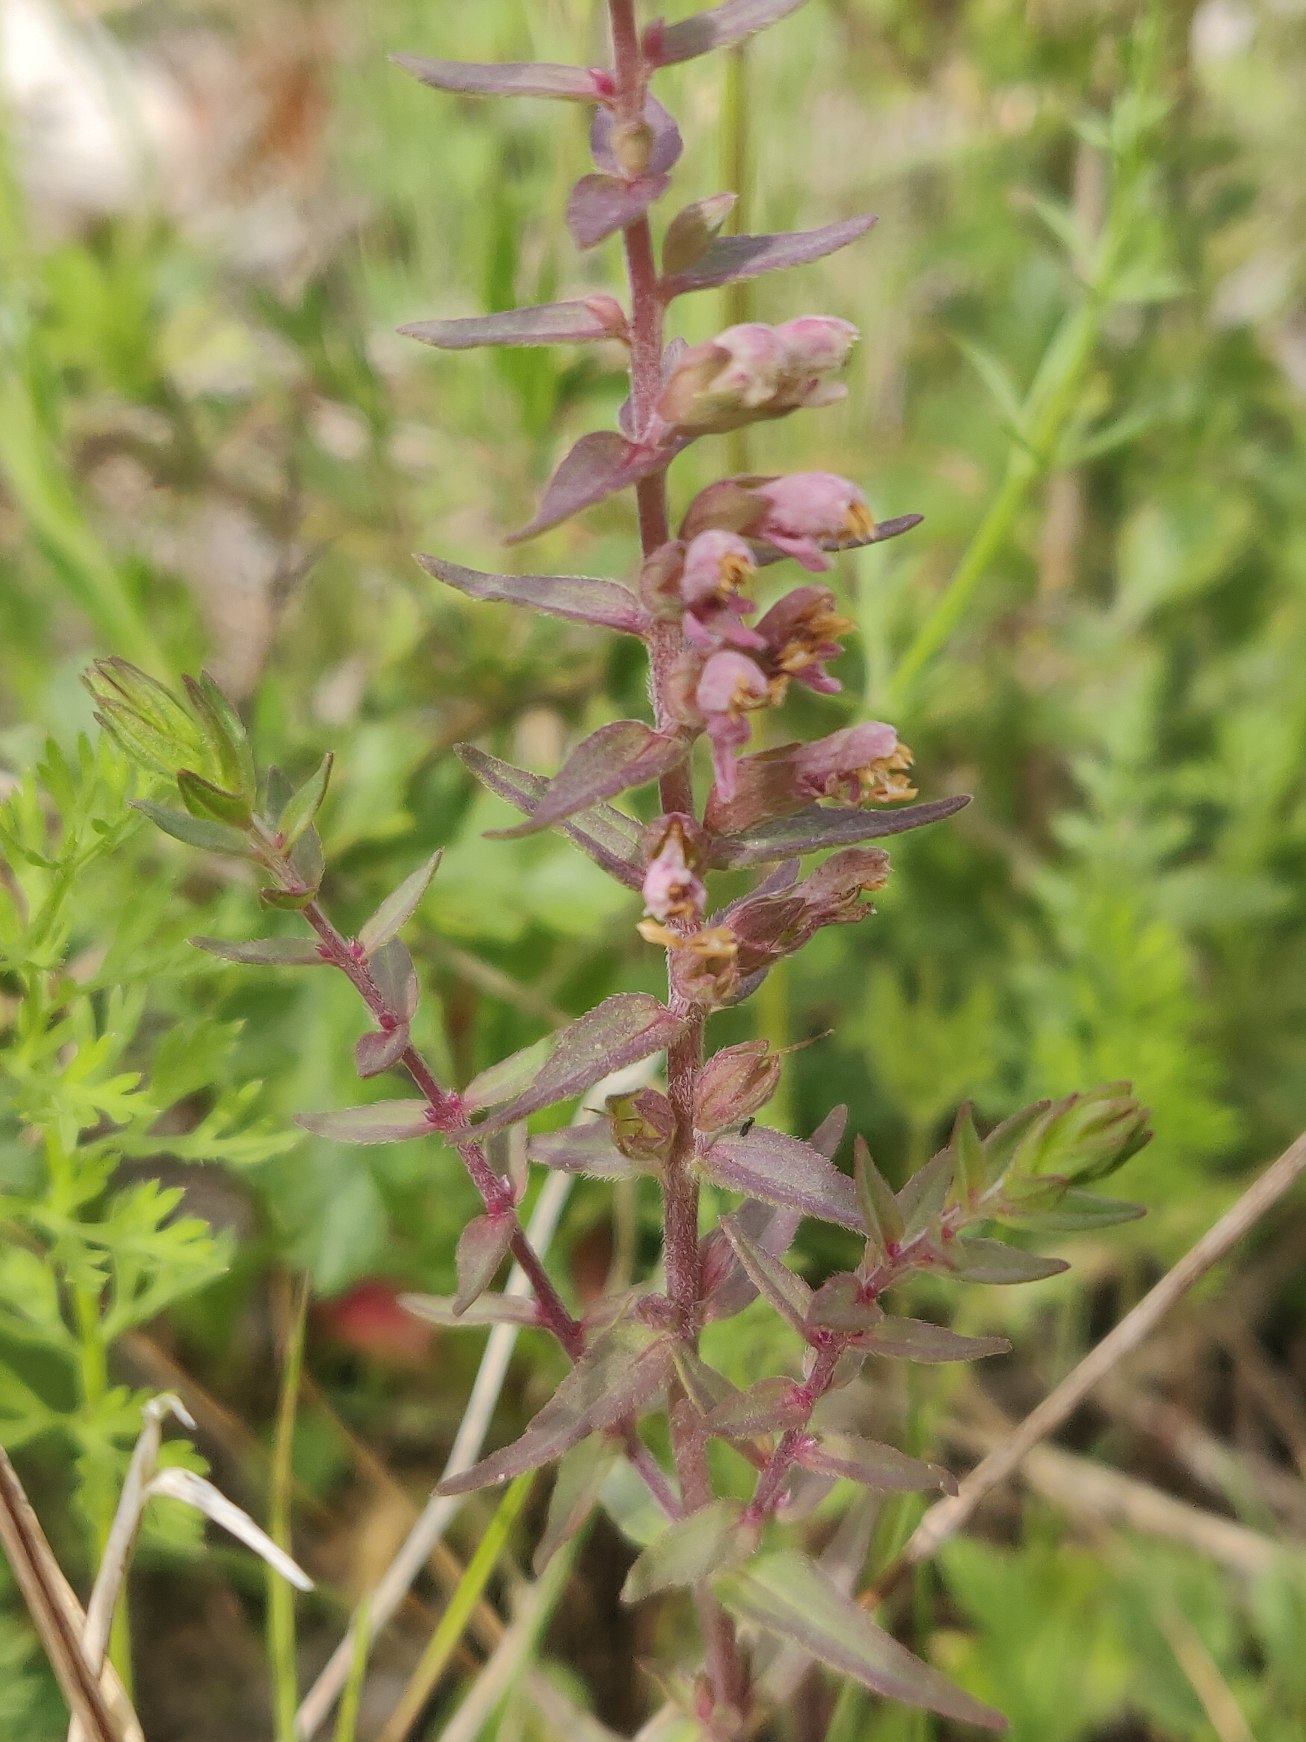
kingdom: Plantae
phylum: Tracheophyta
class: Magnoliopsida
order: Lamiales
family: Orobanchaceae
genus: Odontites
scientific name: Odontites vernus
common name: Mark-rødtop
